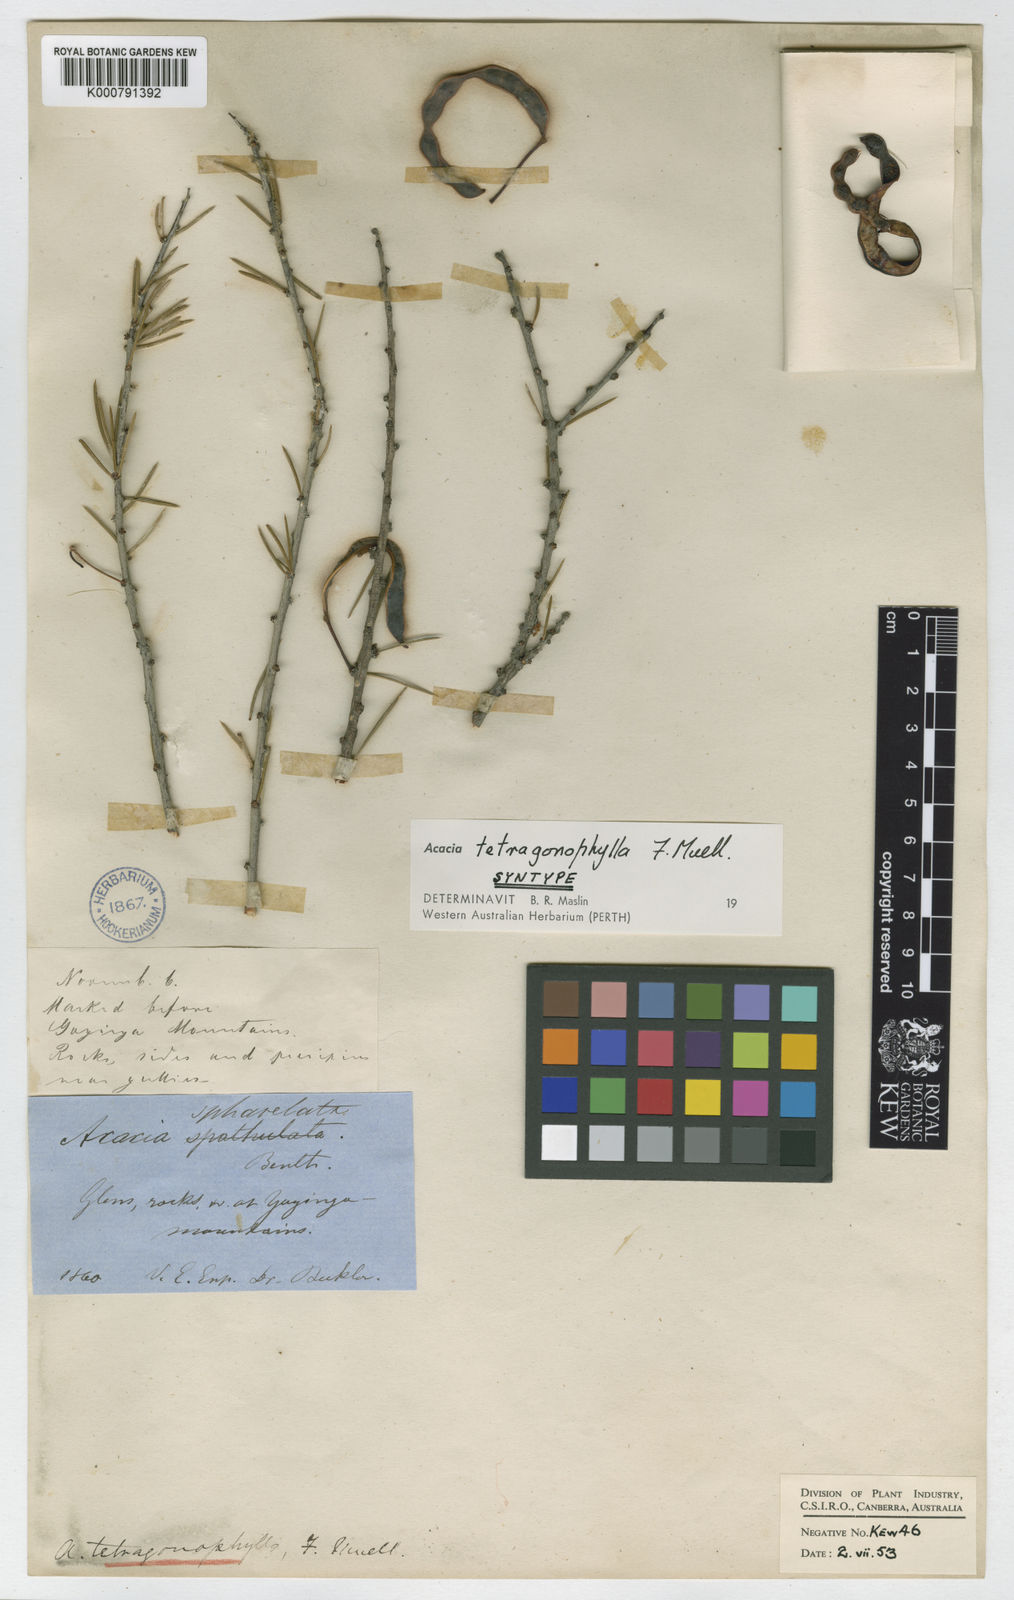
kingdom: Plantae
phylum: Tracheophyta
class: Magnoliopsida
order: Fabales
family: Fabaceae
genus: Acacia
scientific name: Acacia tetragonophylla
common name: Dead finish
